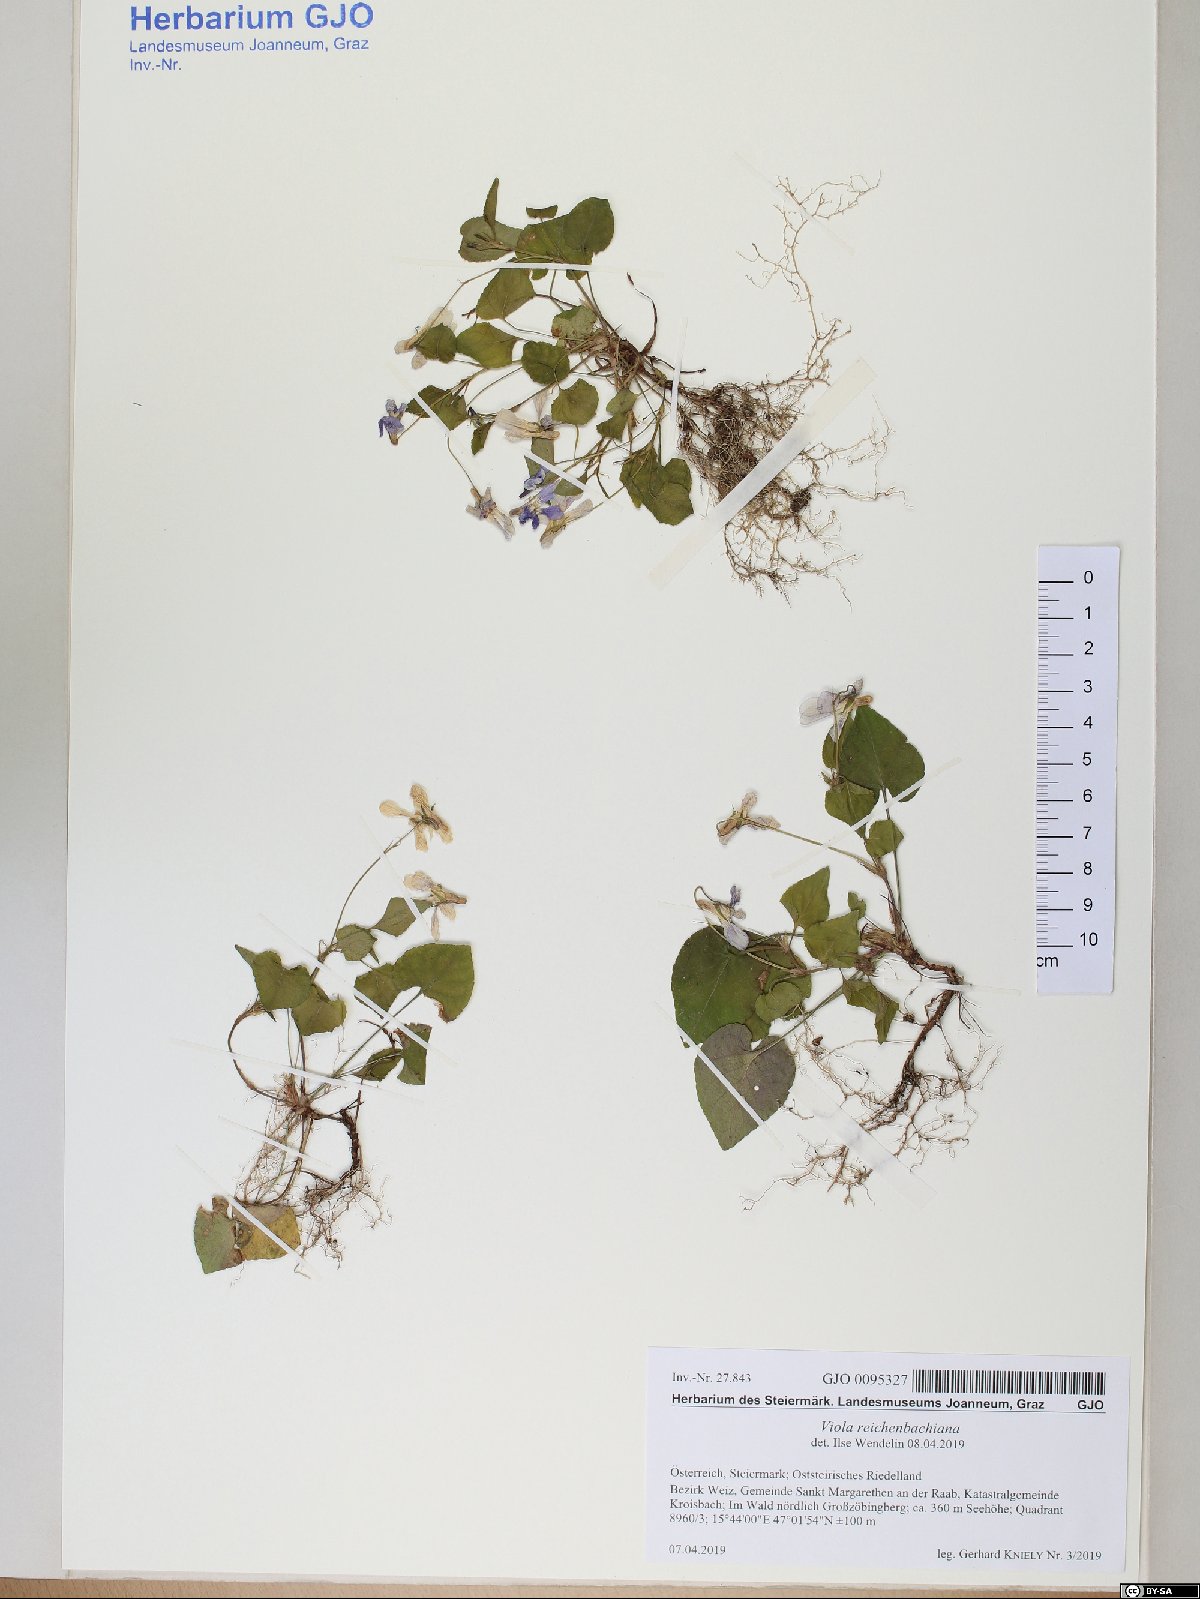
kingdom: Plantae
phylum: Tracheophyta
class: Magnoliopsida
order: Malpighiales
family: Violaceae
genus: Viola
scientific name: Viola reichenbachiana
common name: Early dog-violet
